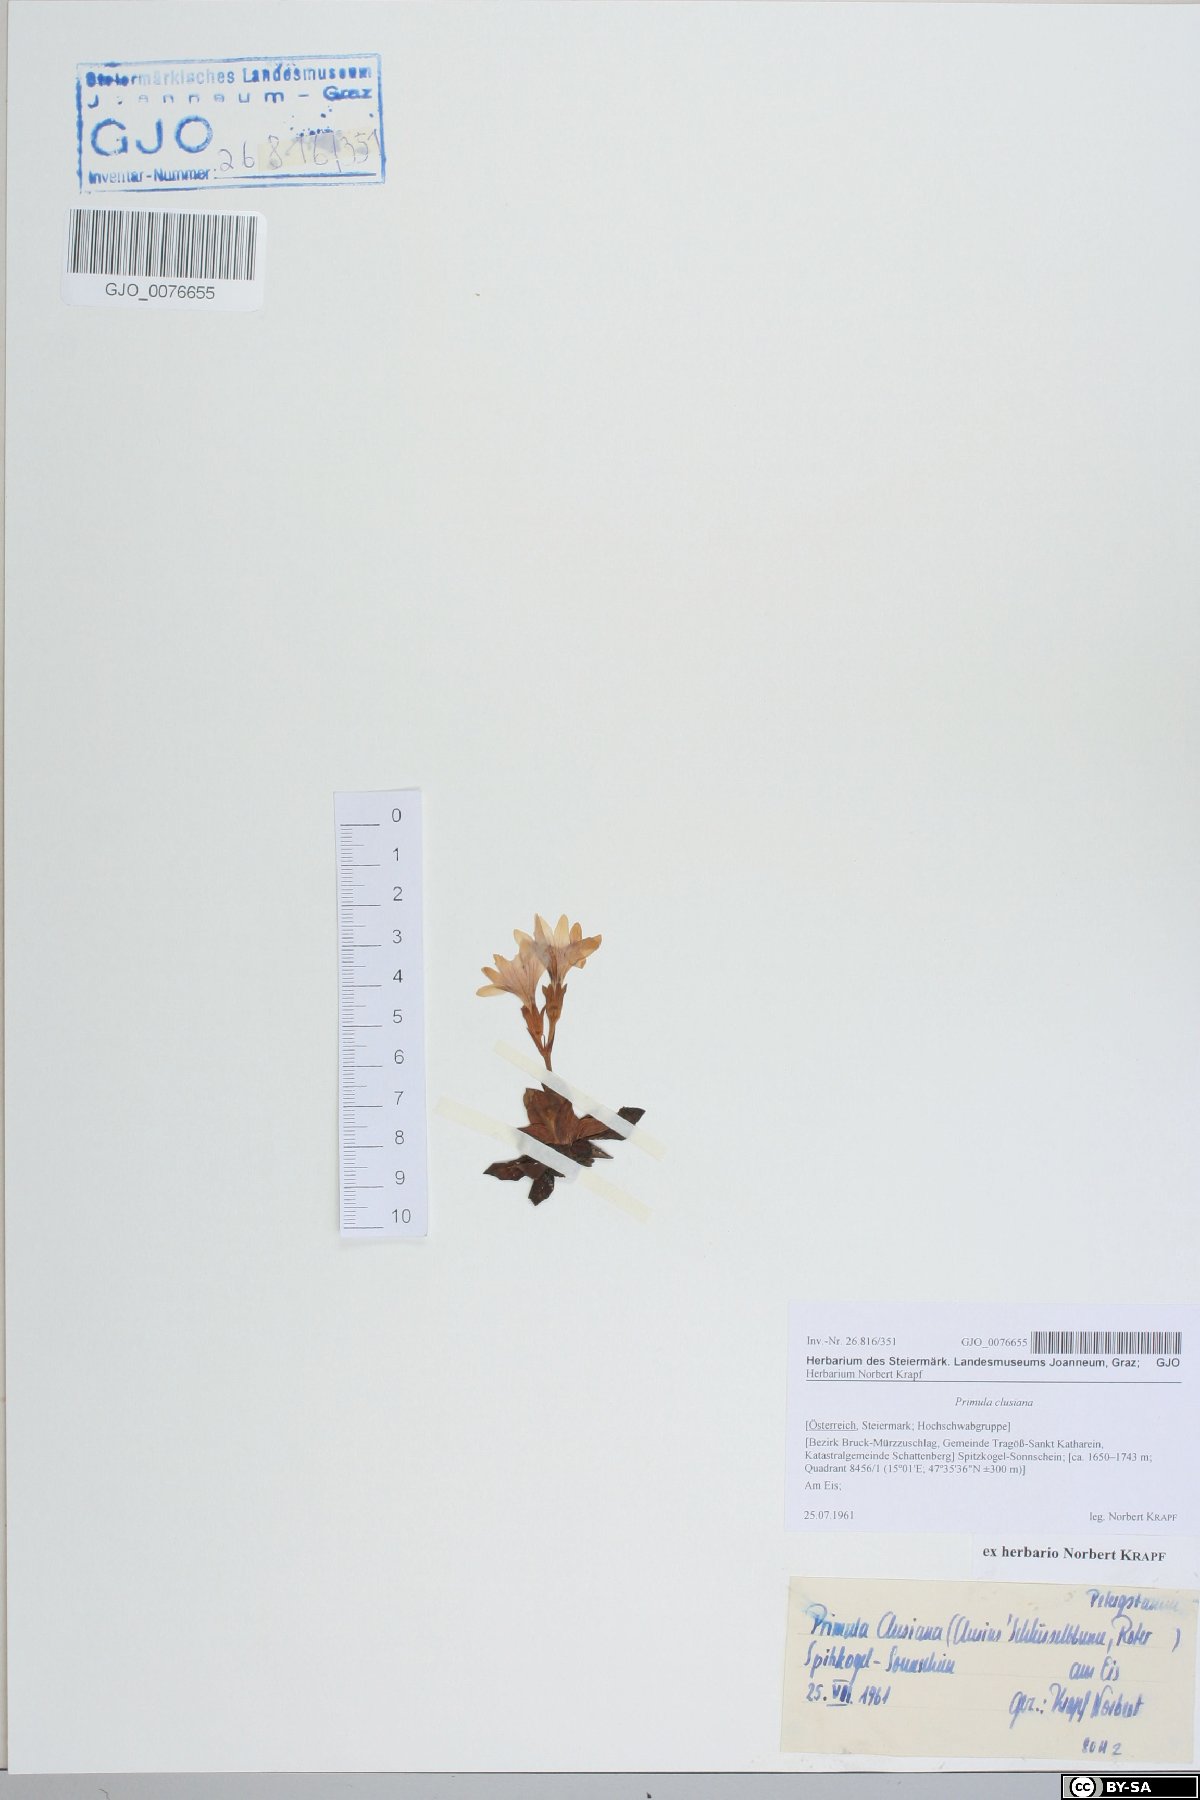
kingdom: Plantae
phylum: Tracheophyta
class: Magnoliopsida
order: Ericales
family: Primulaceae
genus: Primula
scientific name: Primula clusiana
